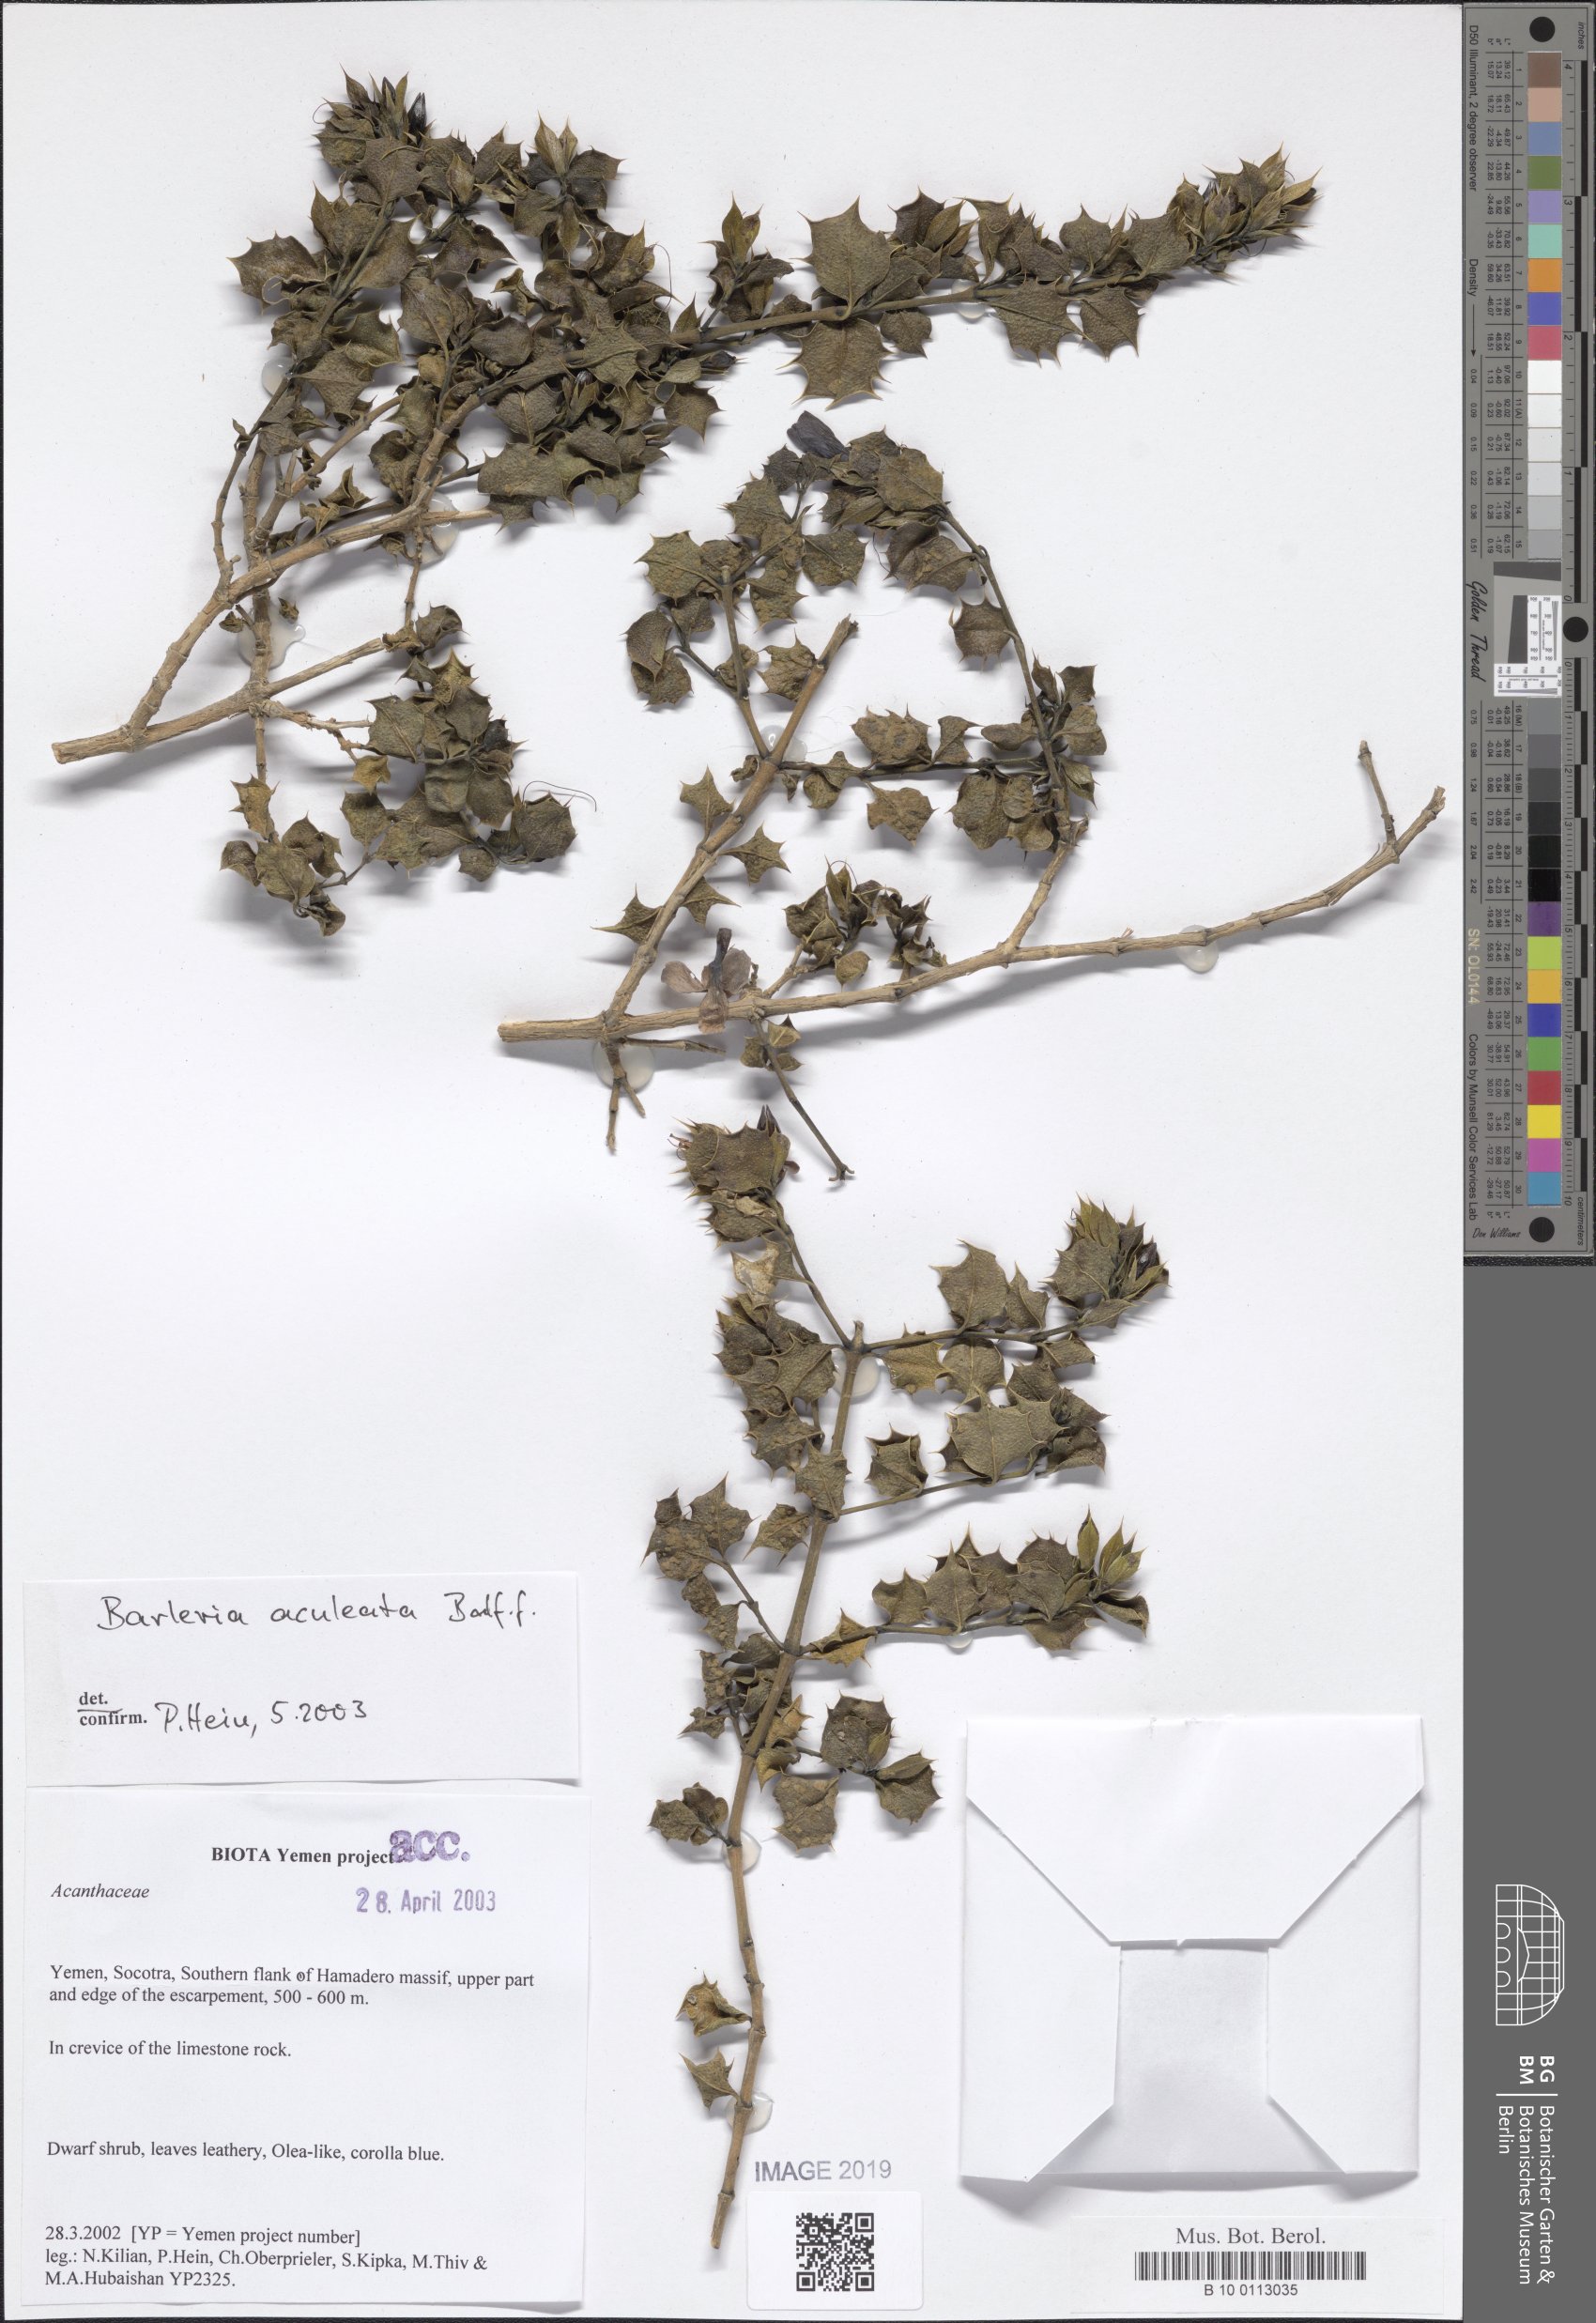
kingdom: Plantae
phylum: Tracheophyta
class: Magnoliopsida
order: Lamiales
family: Acanthaceae
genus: Barleria
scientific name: Barleria aculeata
